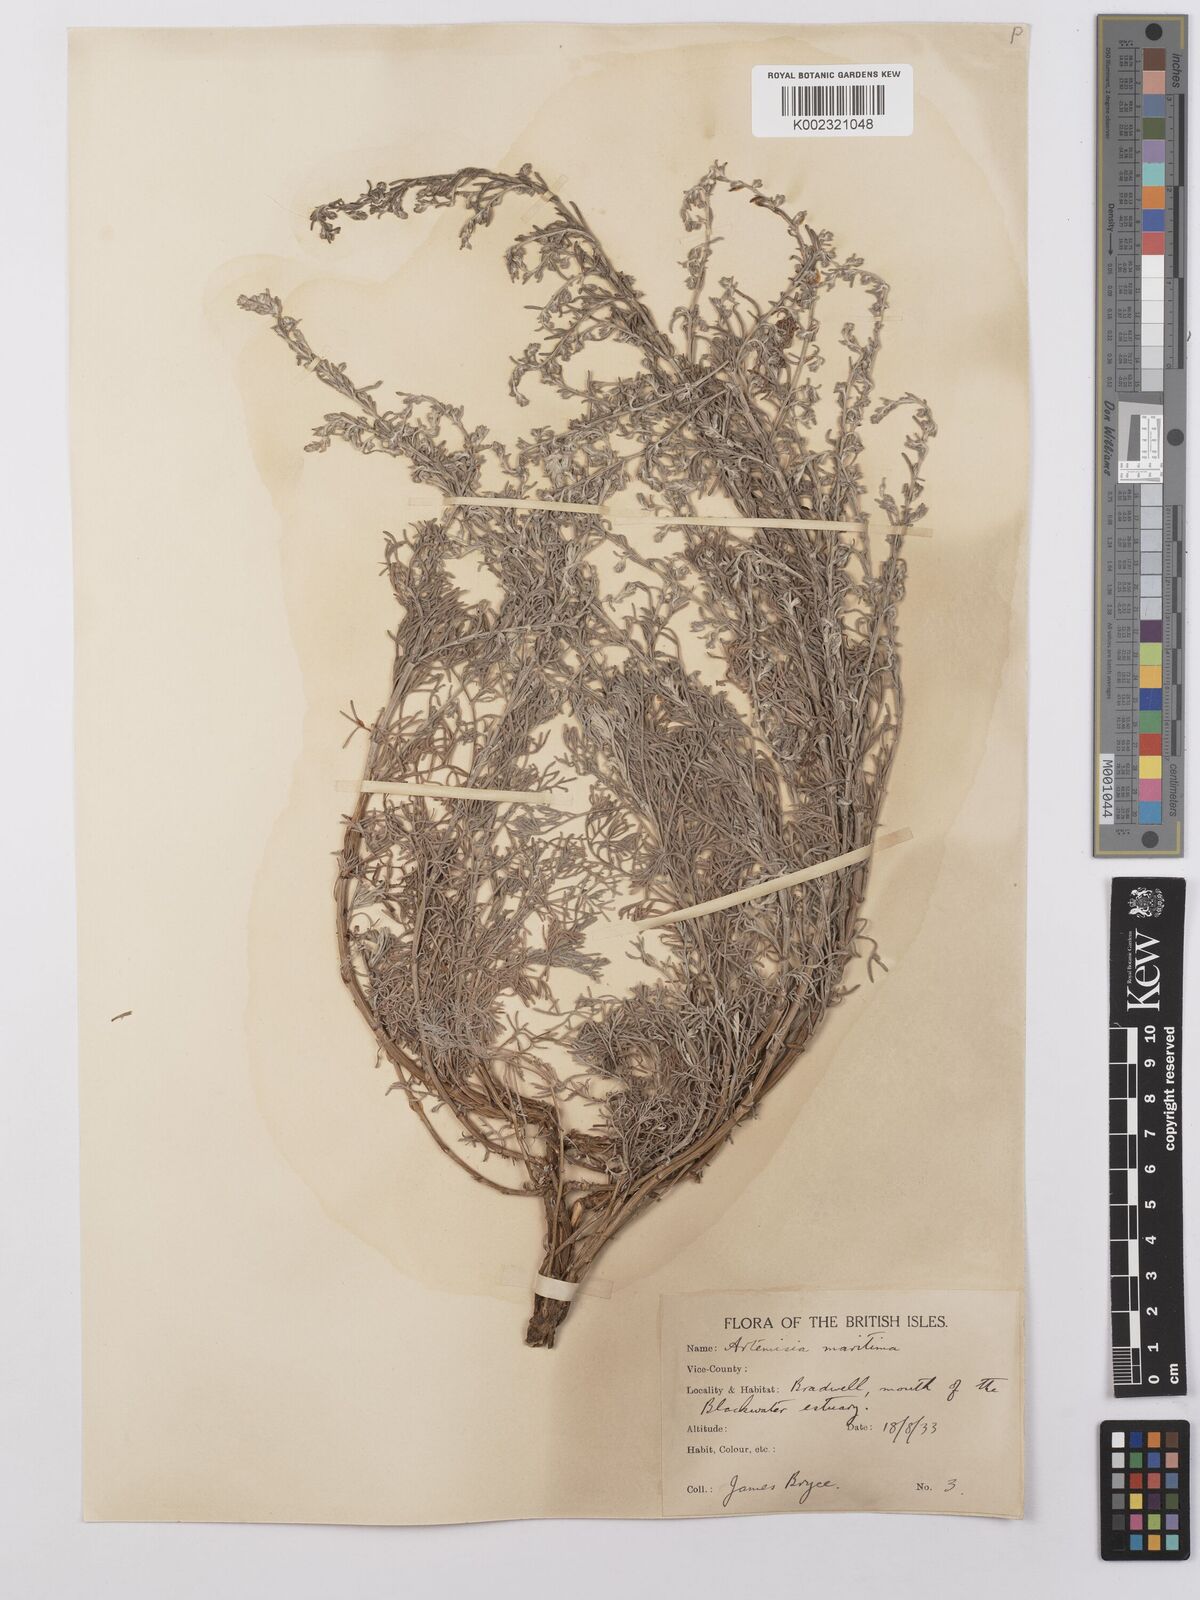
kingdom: Plantae
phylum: Tracheophyta
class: Magnoliopsida
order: Asterales
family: Asteraceae
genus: Artemisia
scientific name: Artemisia maritima
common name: Wormseed
